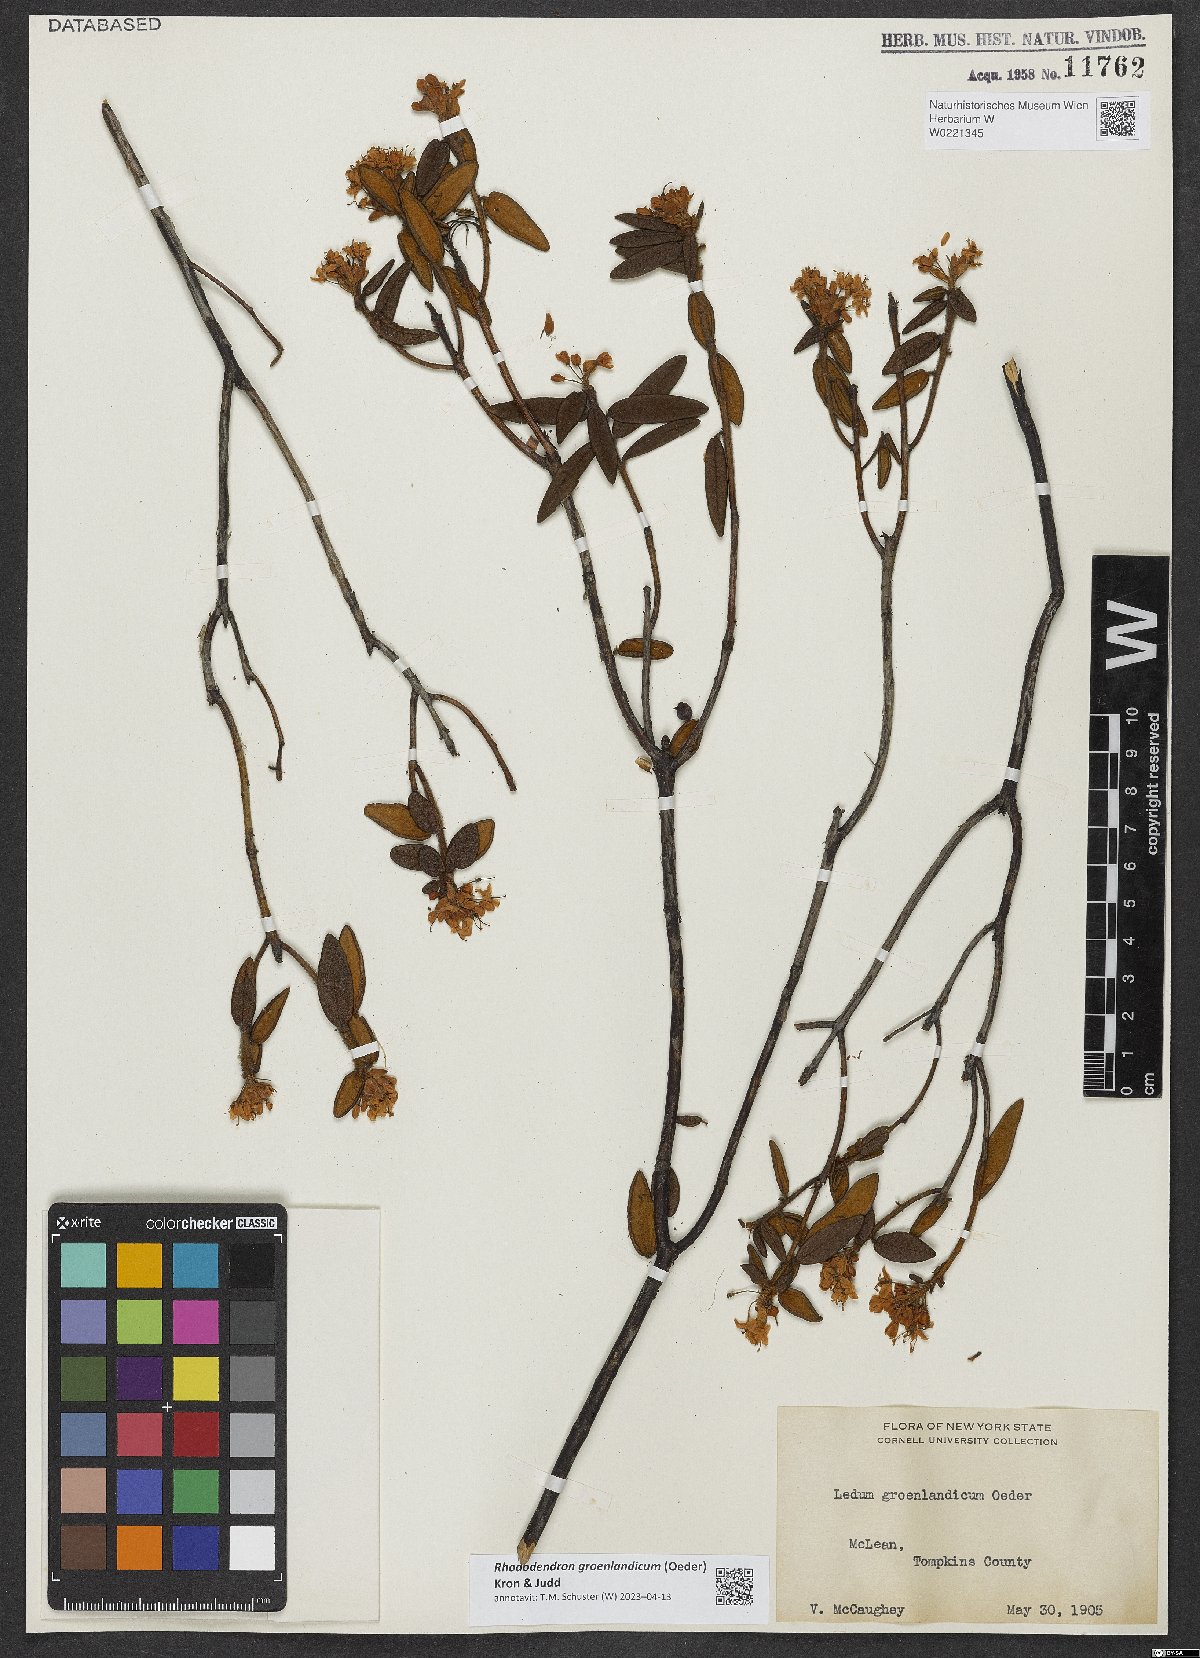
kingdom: Plantae
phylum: Tracheophyta
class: Magnoliopsida
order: Ericales
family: Ericaceae
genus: Rhododendron
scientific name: Rhododendron groenlandicum
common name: Bog labrador tea
